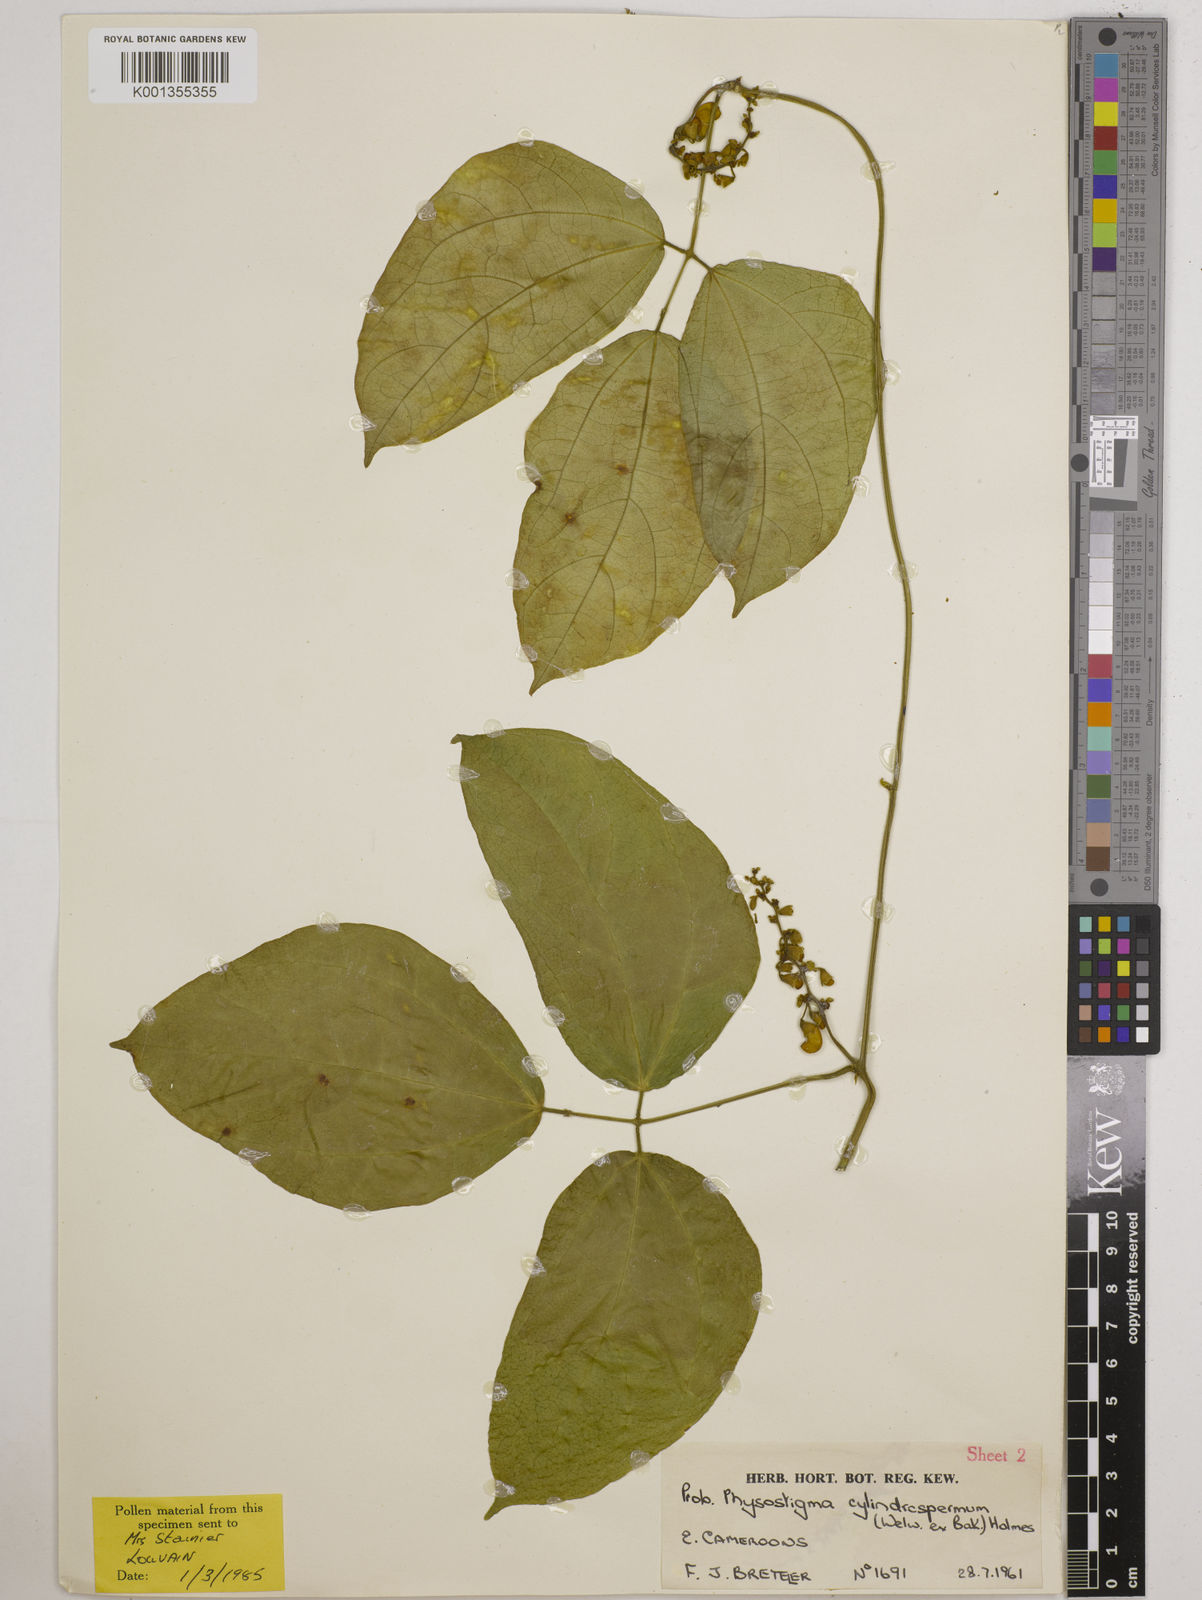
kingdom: Plantae
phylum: Tracheophyta
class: Magnoliopsida
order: Fabales
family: Fabaceae
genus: Physostigma
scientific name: Physostigma cylindrospermum
